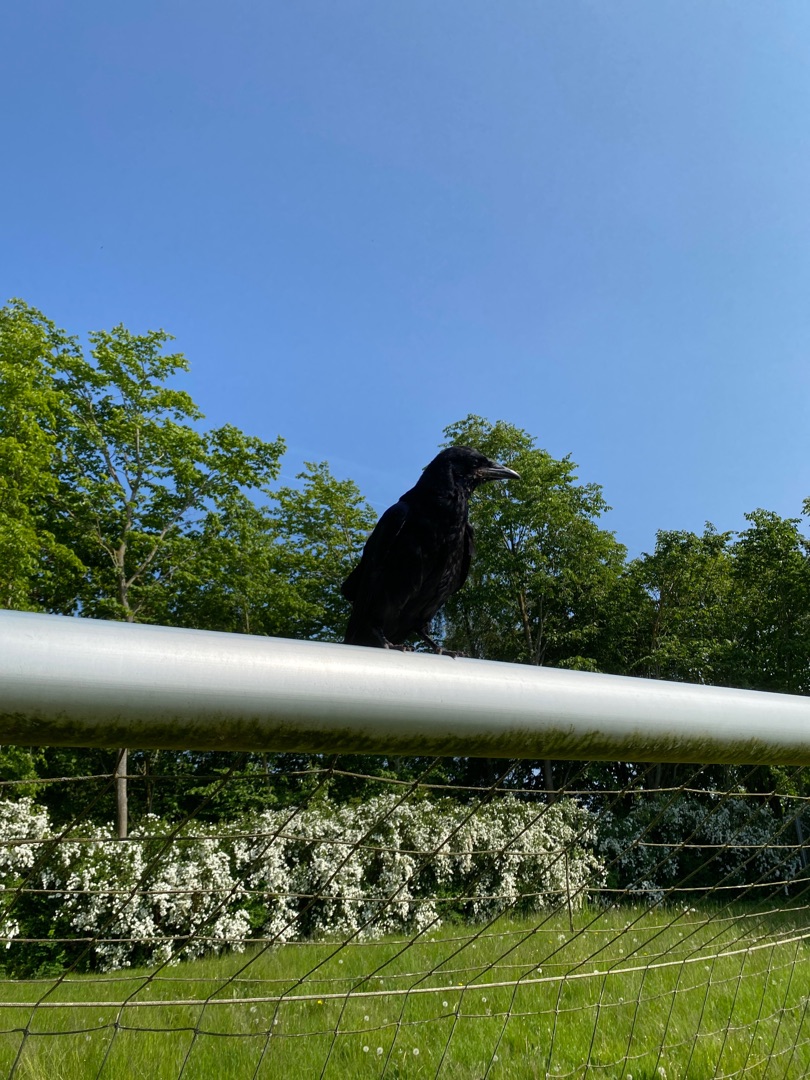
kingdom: Animalia
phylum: Chordata
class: Aves
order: Passeriformes
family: Corvidae
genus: Corvus
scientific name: Corvus corax
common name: Ravn
